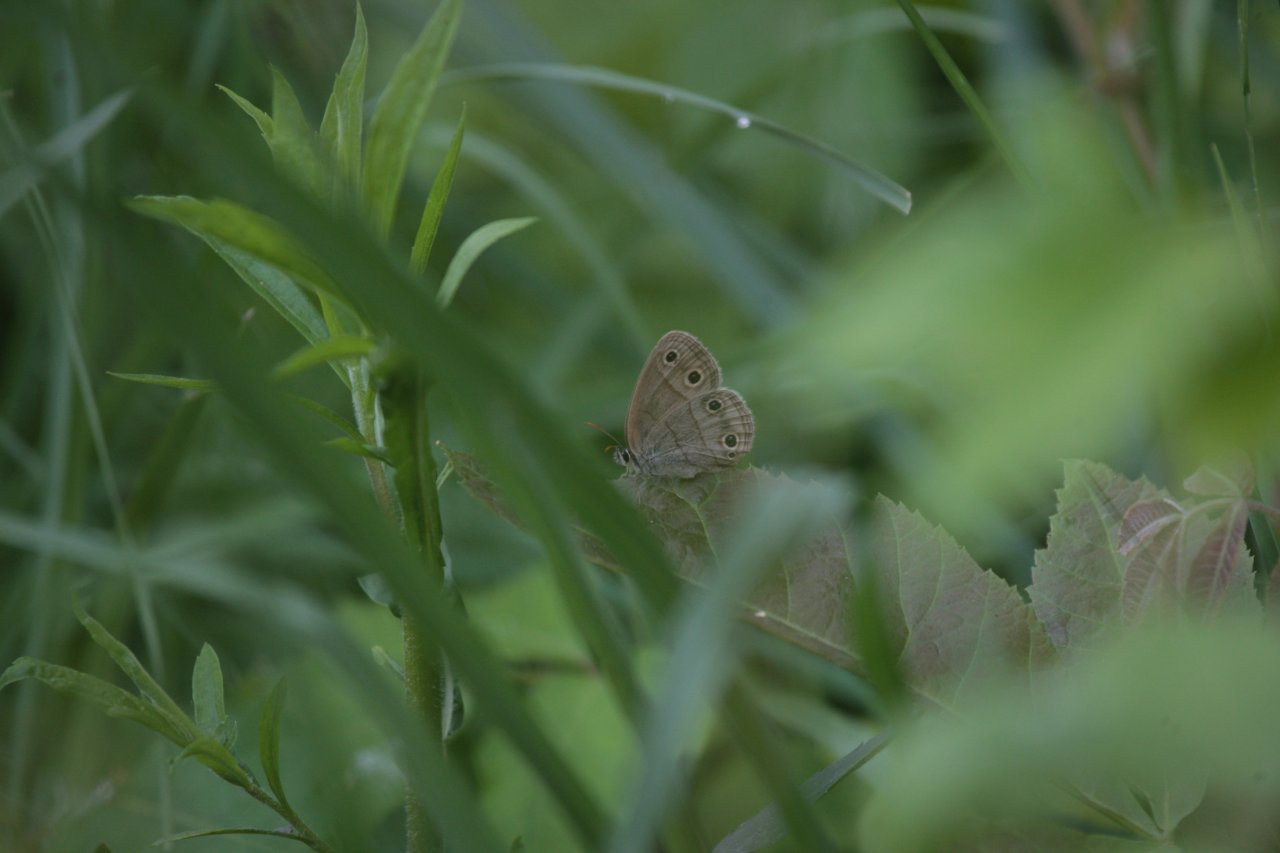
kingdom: Animalia
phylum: Arthropoda
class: Insecta
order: Lepidoptera
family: Nymphalidae
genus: Euptychia
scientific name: Euptychia cymela
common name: Little Wood Satyr
